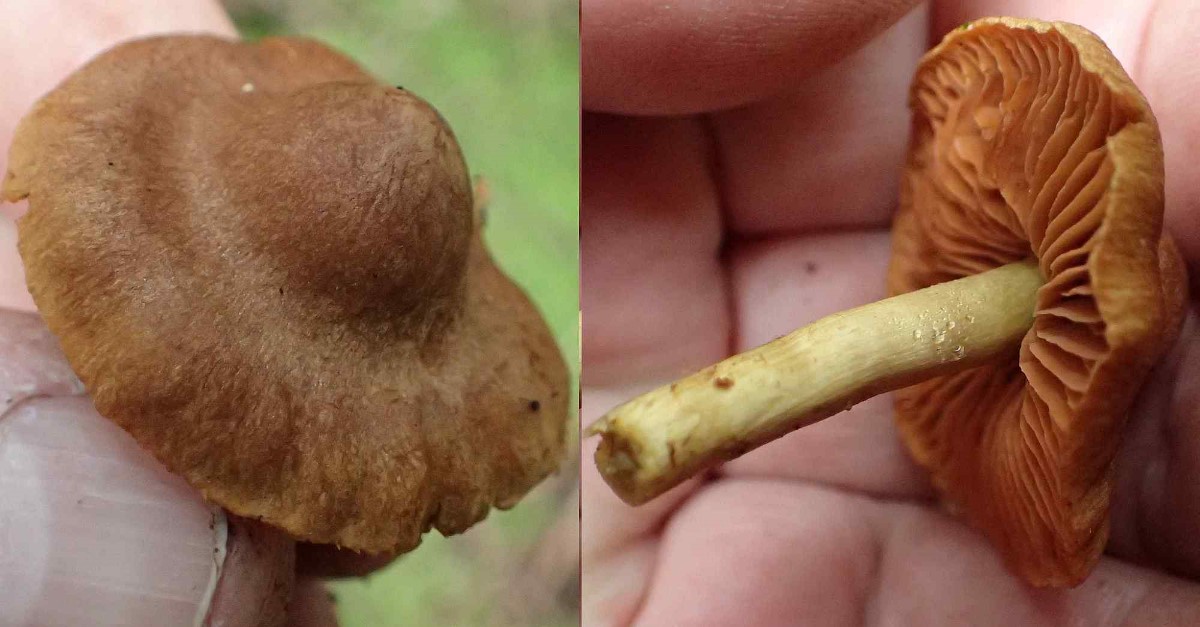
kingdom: Fungi
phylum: Basidiomycota
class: Agaricomycetes
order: Agaricales
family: Cortinariaceae
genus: Cortinarius
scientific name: Cortinarius
